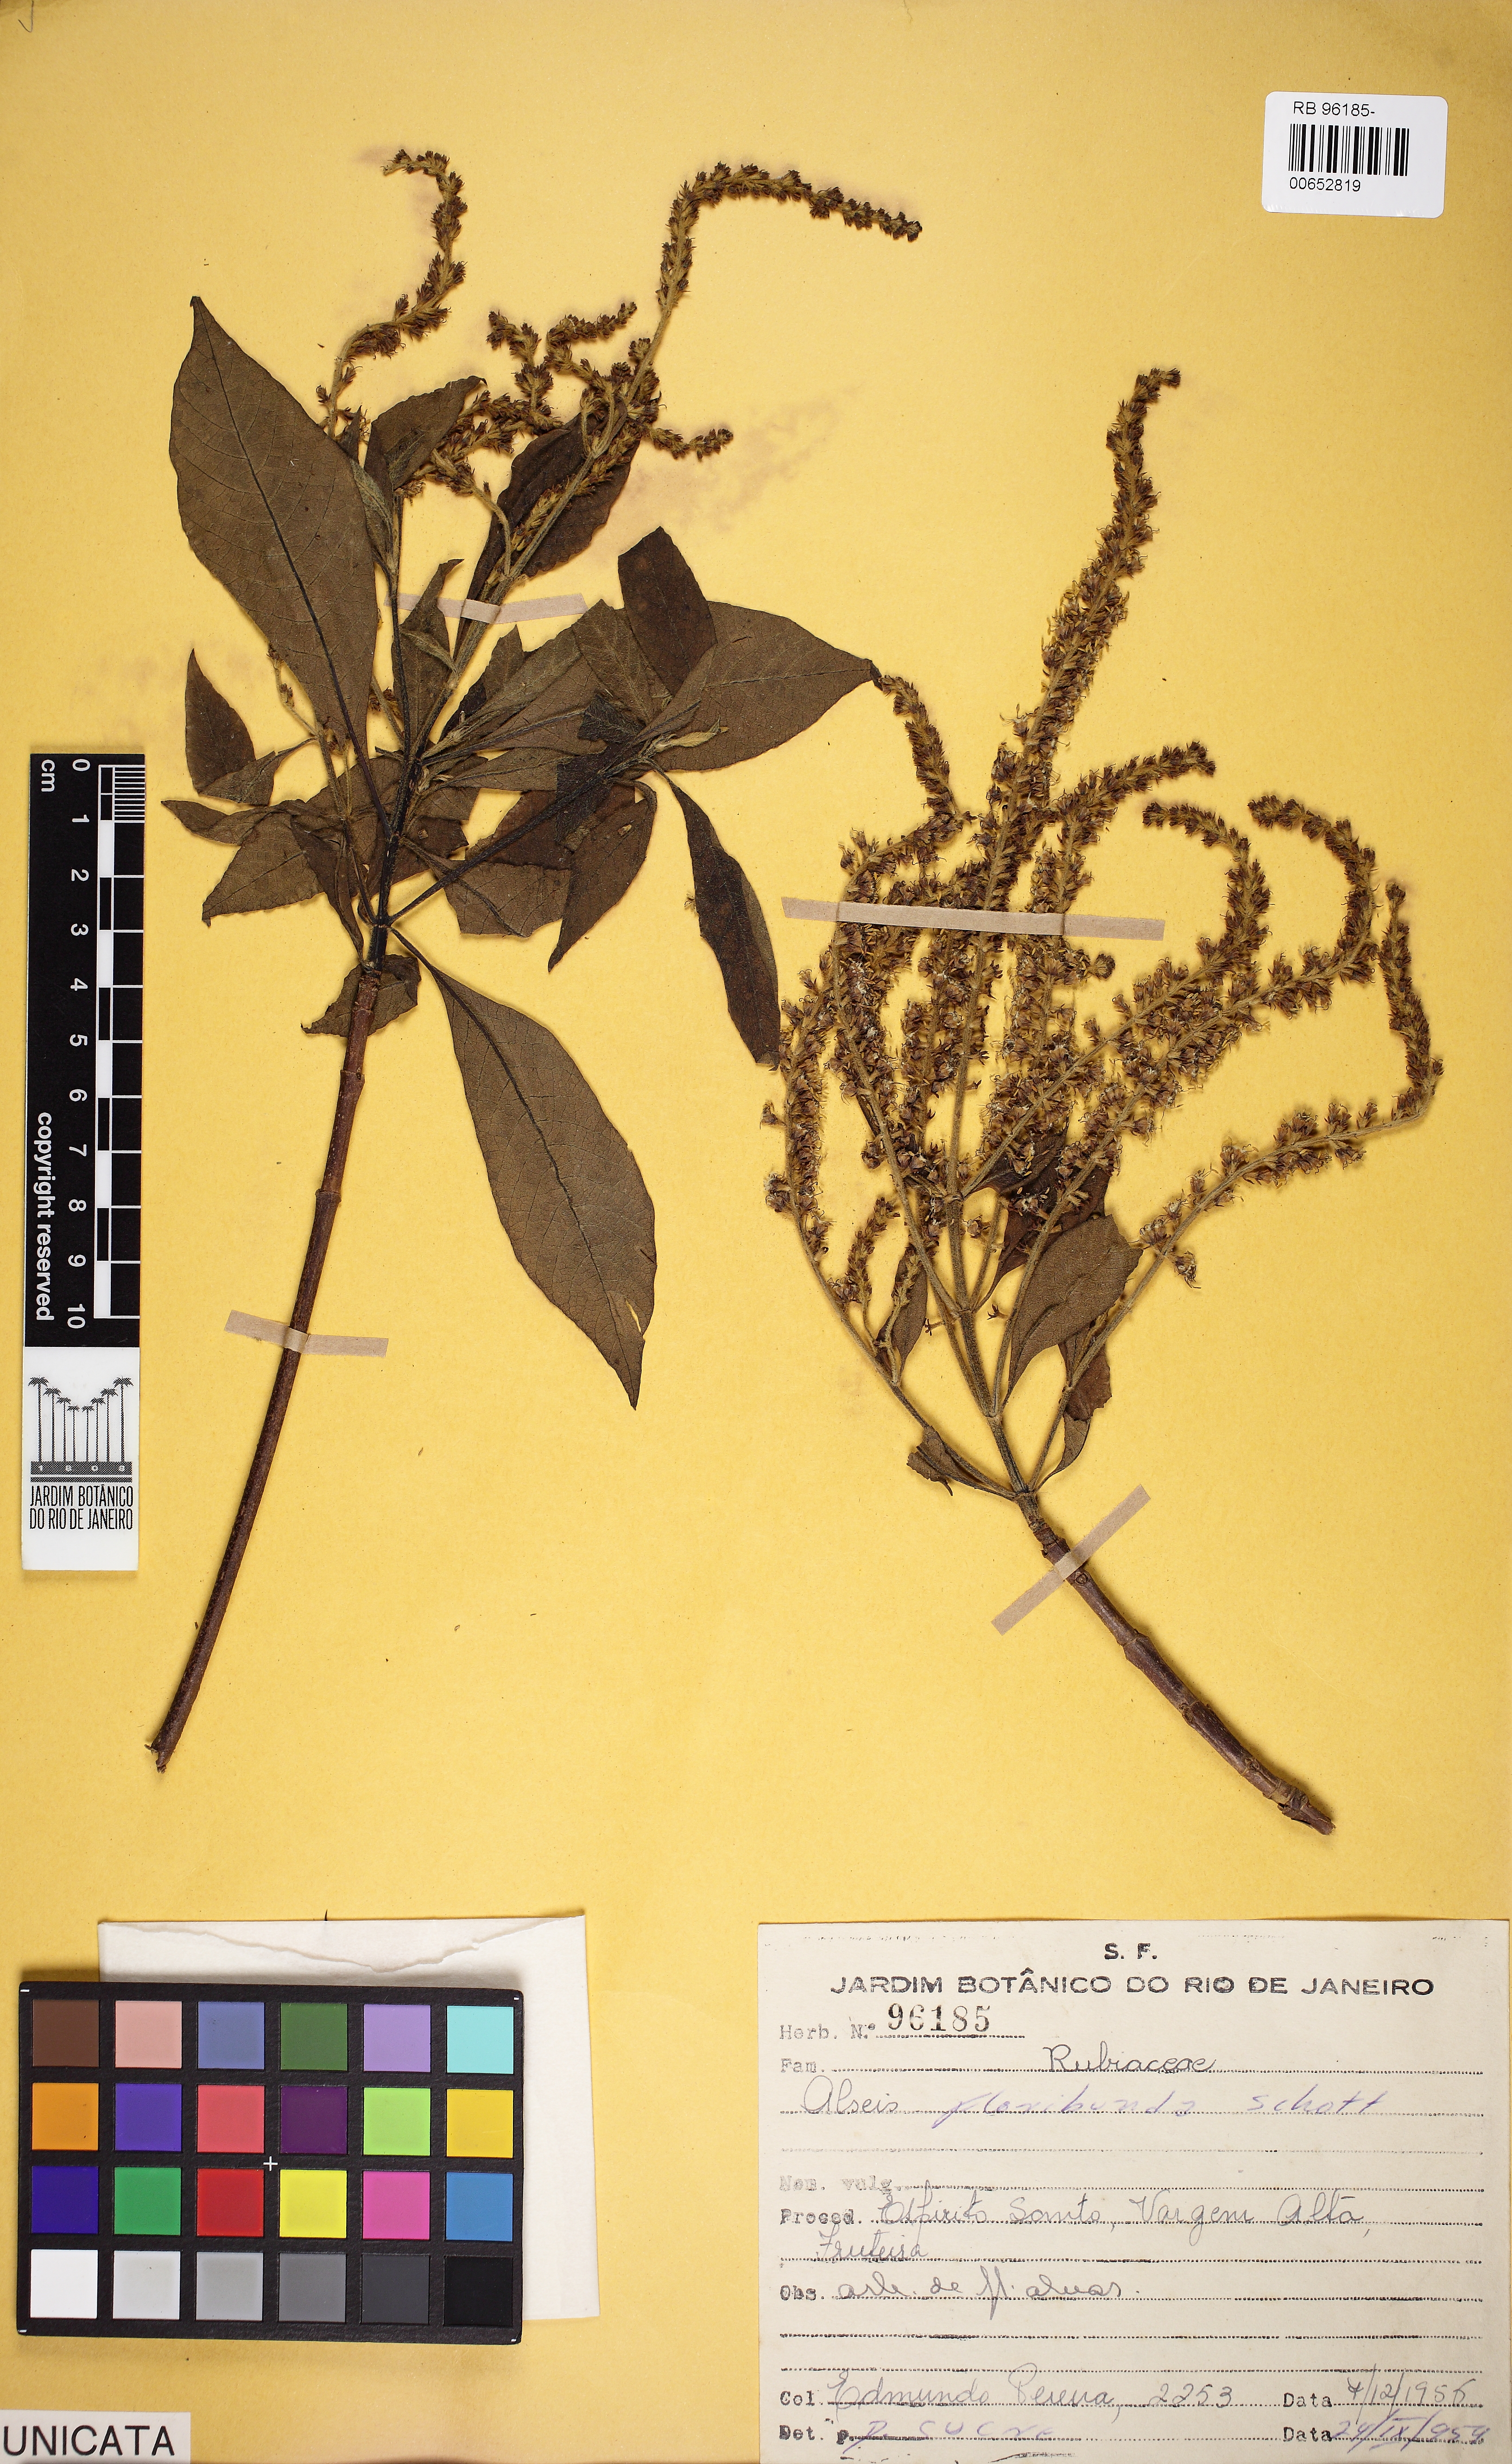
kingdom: Plantae
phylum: Tracheophyta
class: Magnoliopsida
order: Gentianales
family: Rubiaceae
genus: Alseis
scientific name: Alseis floribunda
